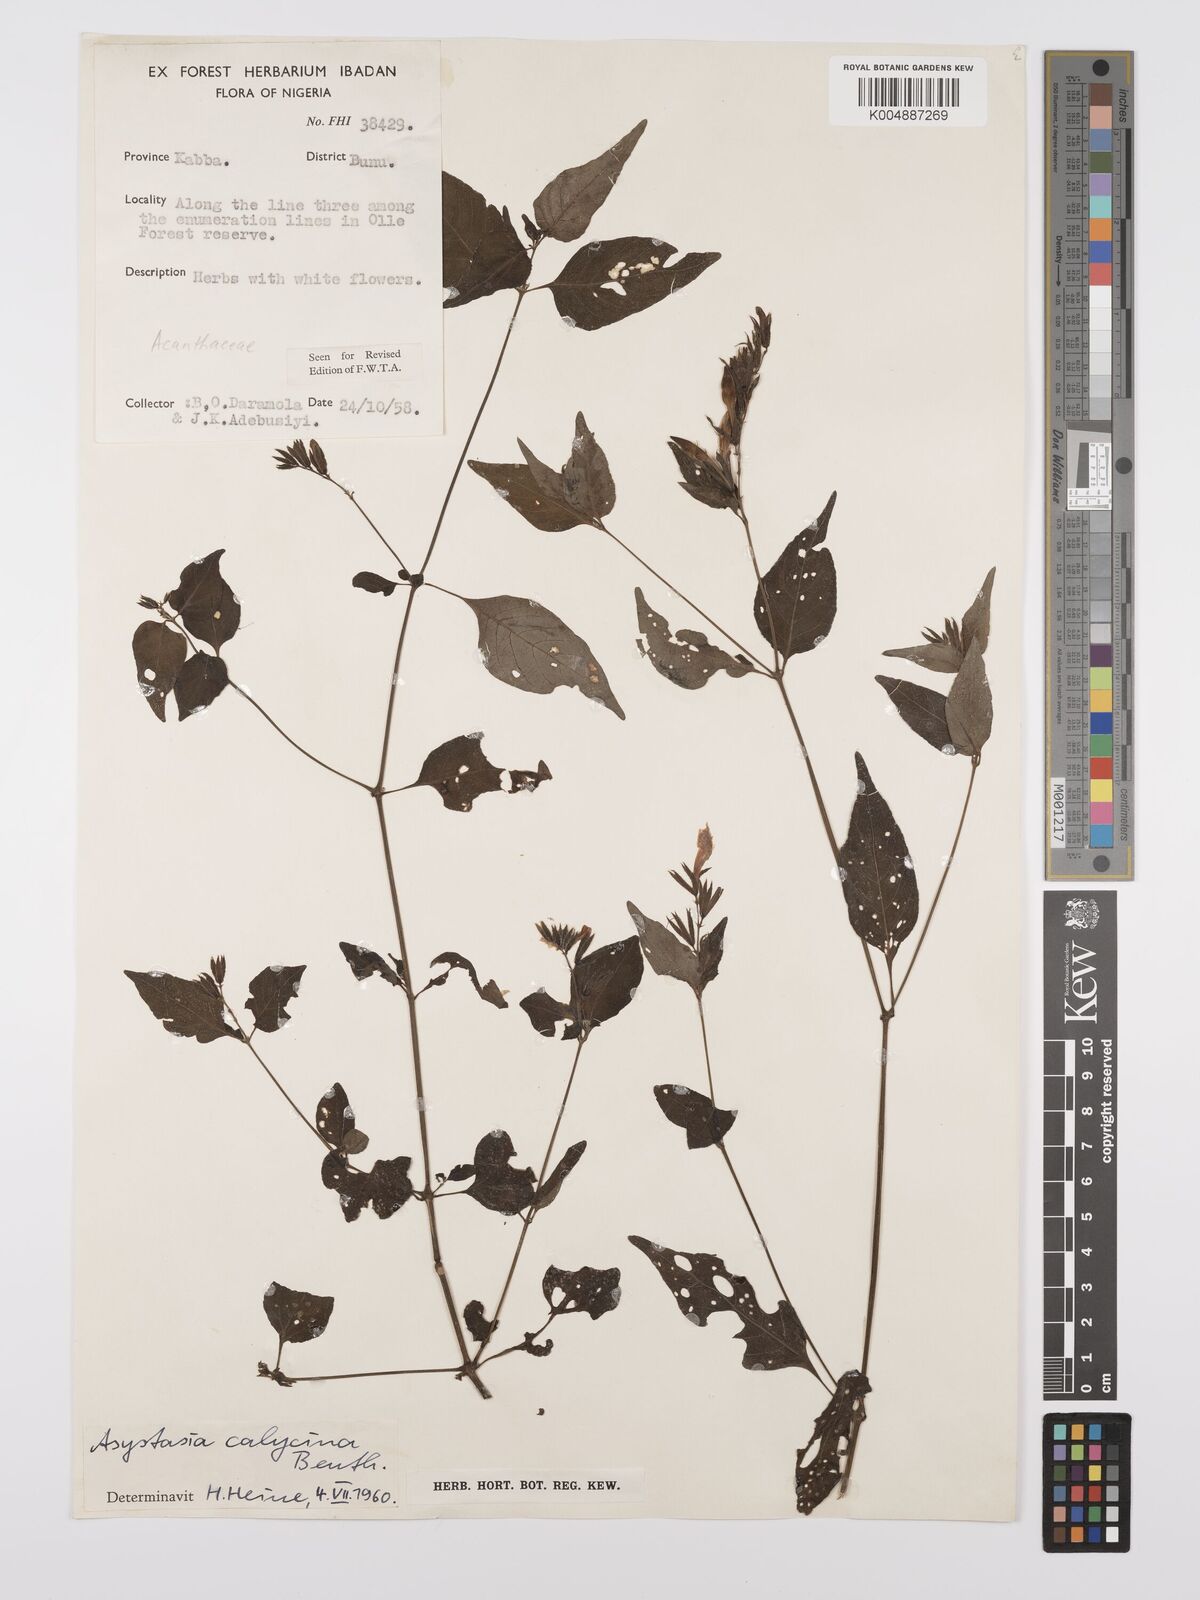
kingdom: Plantae
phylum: Tracheophyta
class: Magnoliopsida
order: Lamiales
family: Acanthaceae
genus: Asystasia
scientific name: Asystasia buettneri
